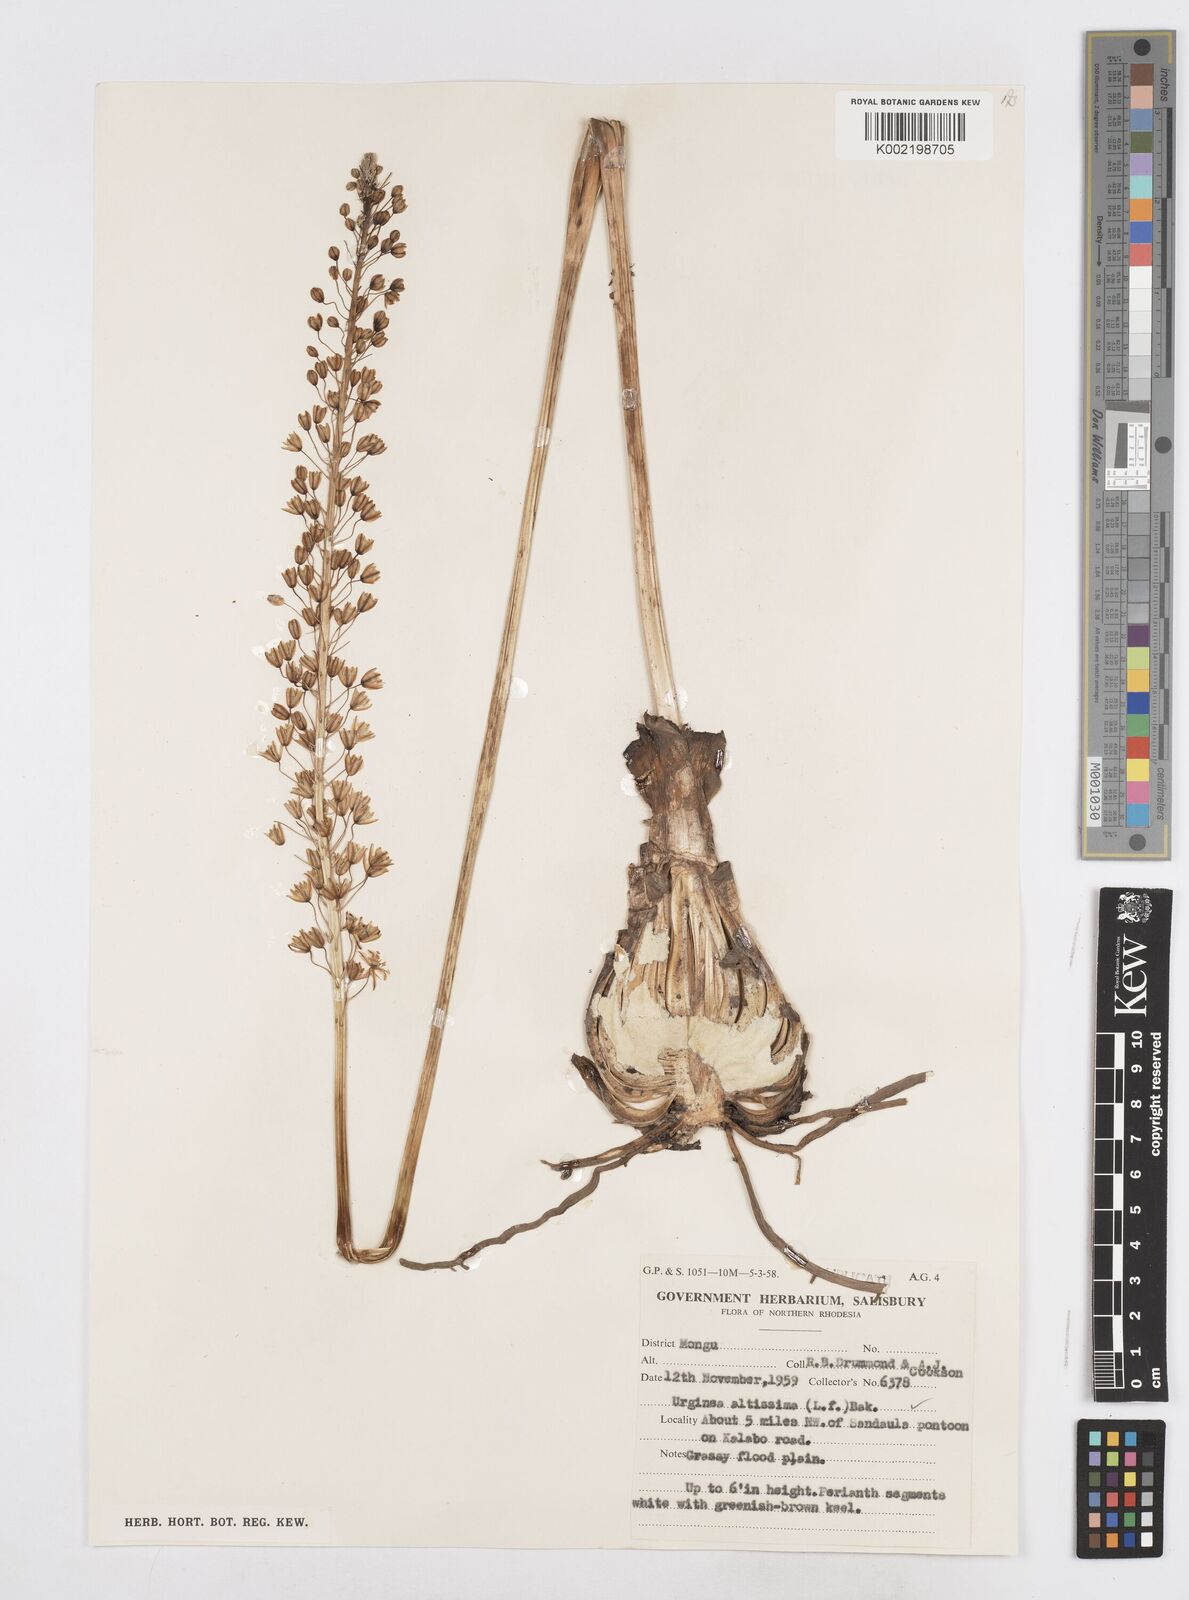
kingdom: Plantae
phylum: Tracheophyta
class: Liliopsida
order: Asparagales
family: Asparagaceae
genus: Drimia
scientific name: Drimia
